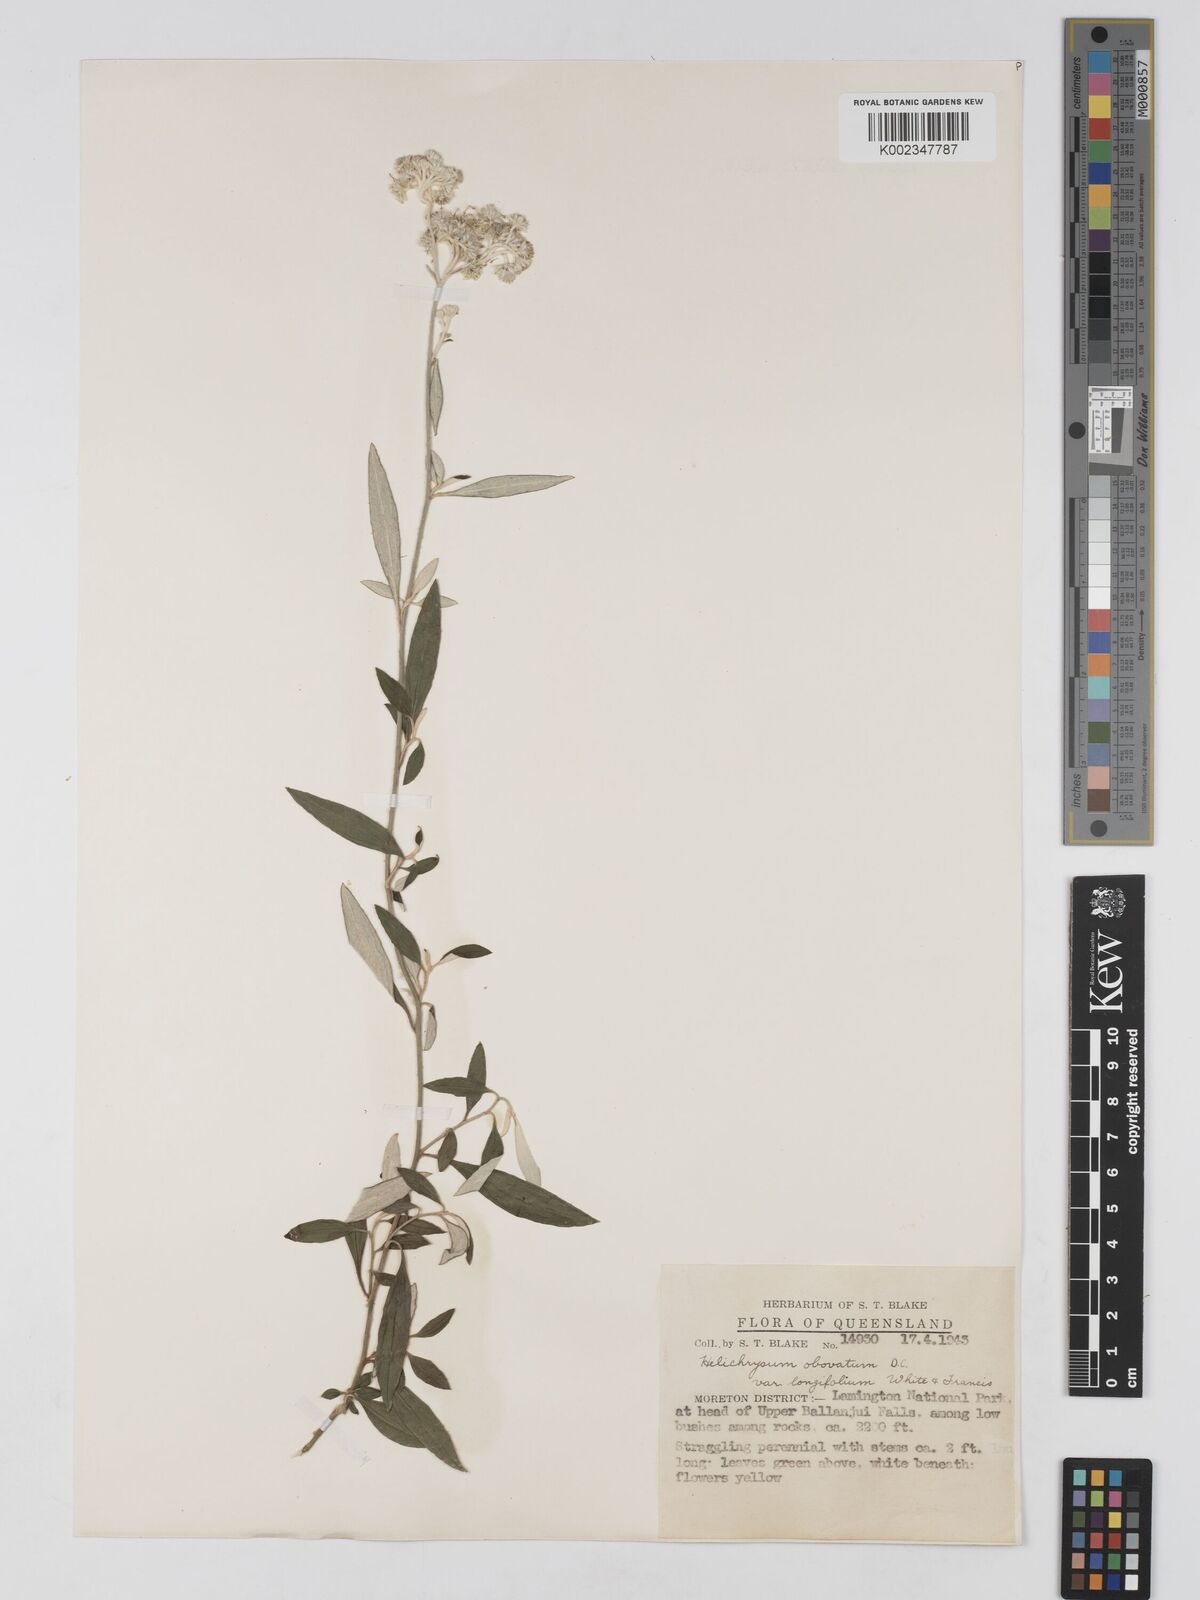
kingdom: Plantae
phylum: Tracheophyta
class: Magnoliopsida
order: Asterales
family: Asteraceae
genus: Ozothamnus
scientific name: Ozothamnus whitei
